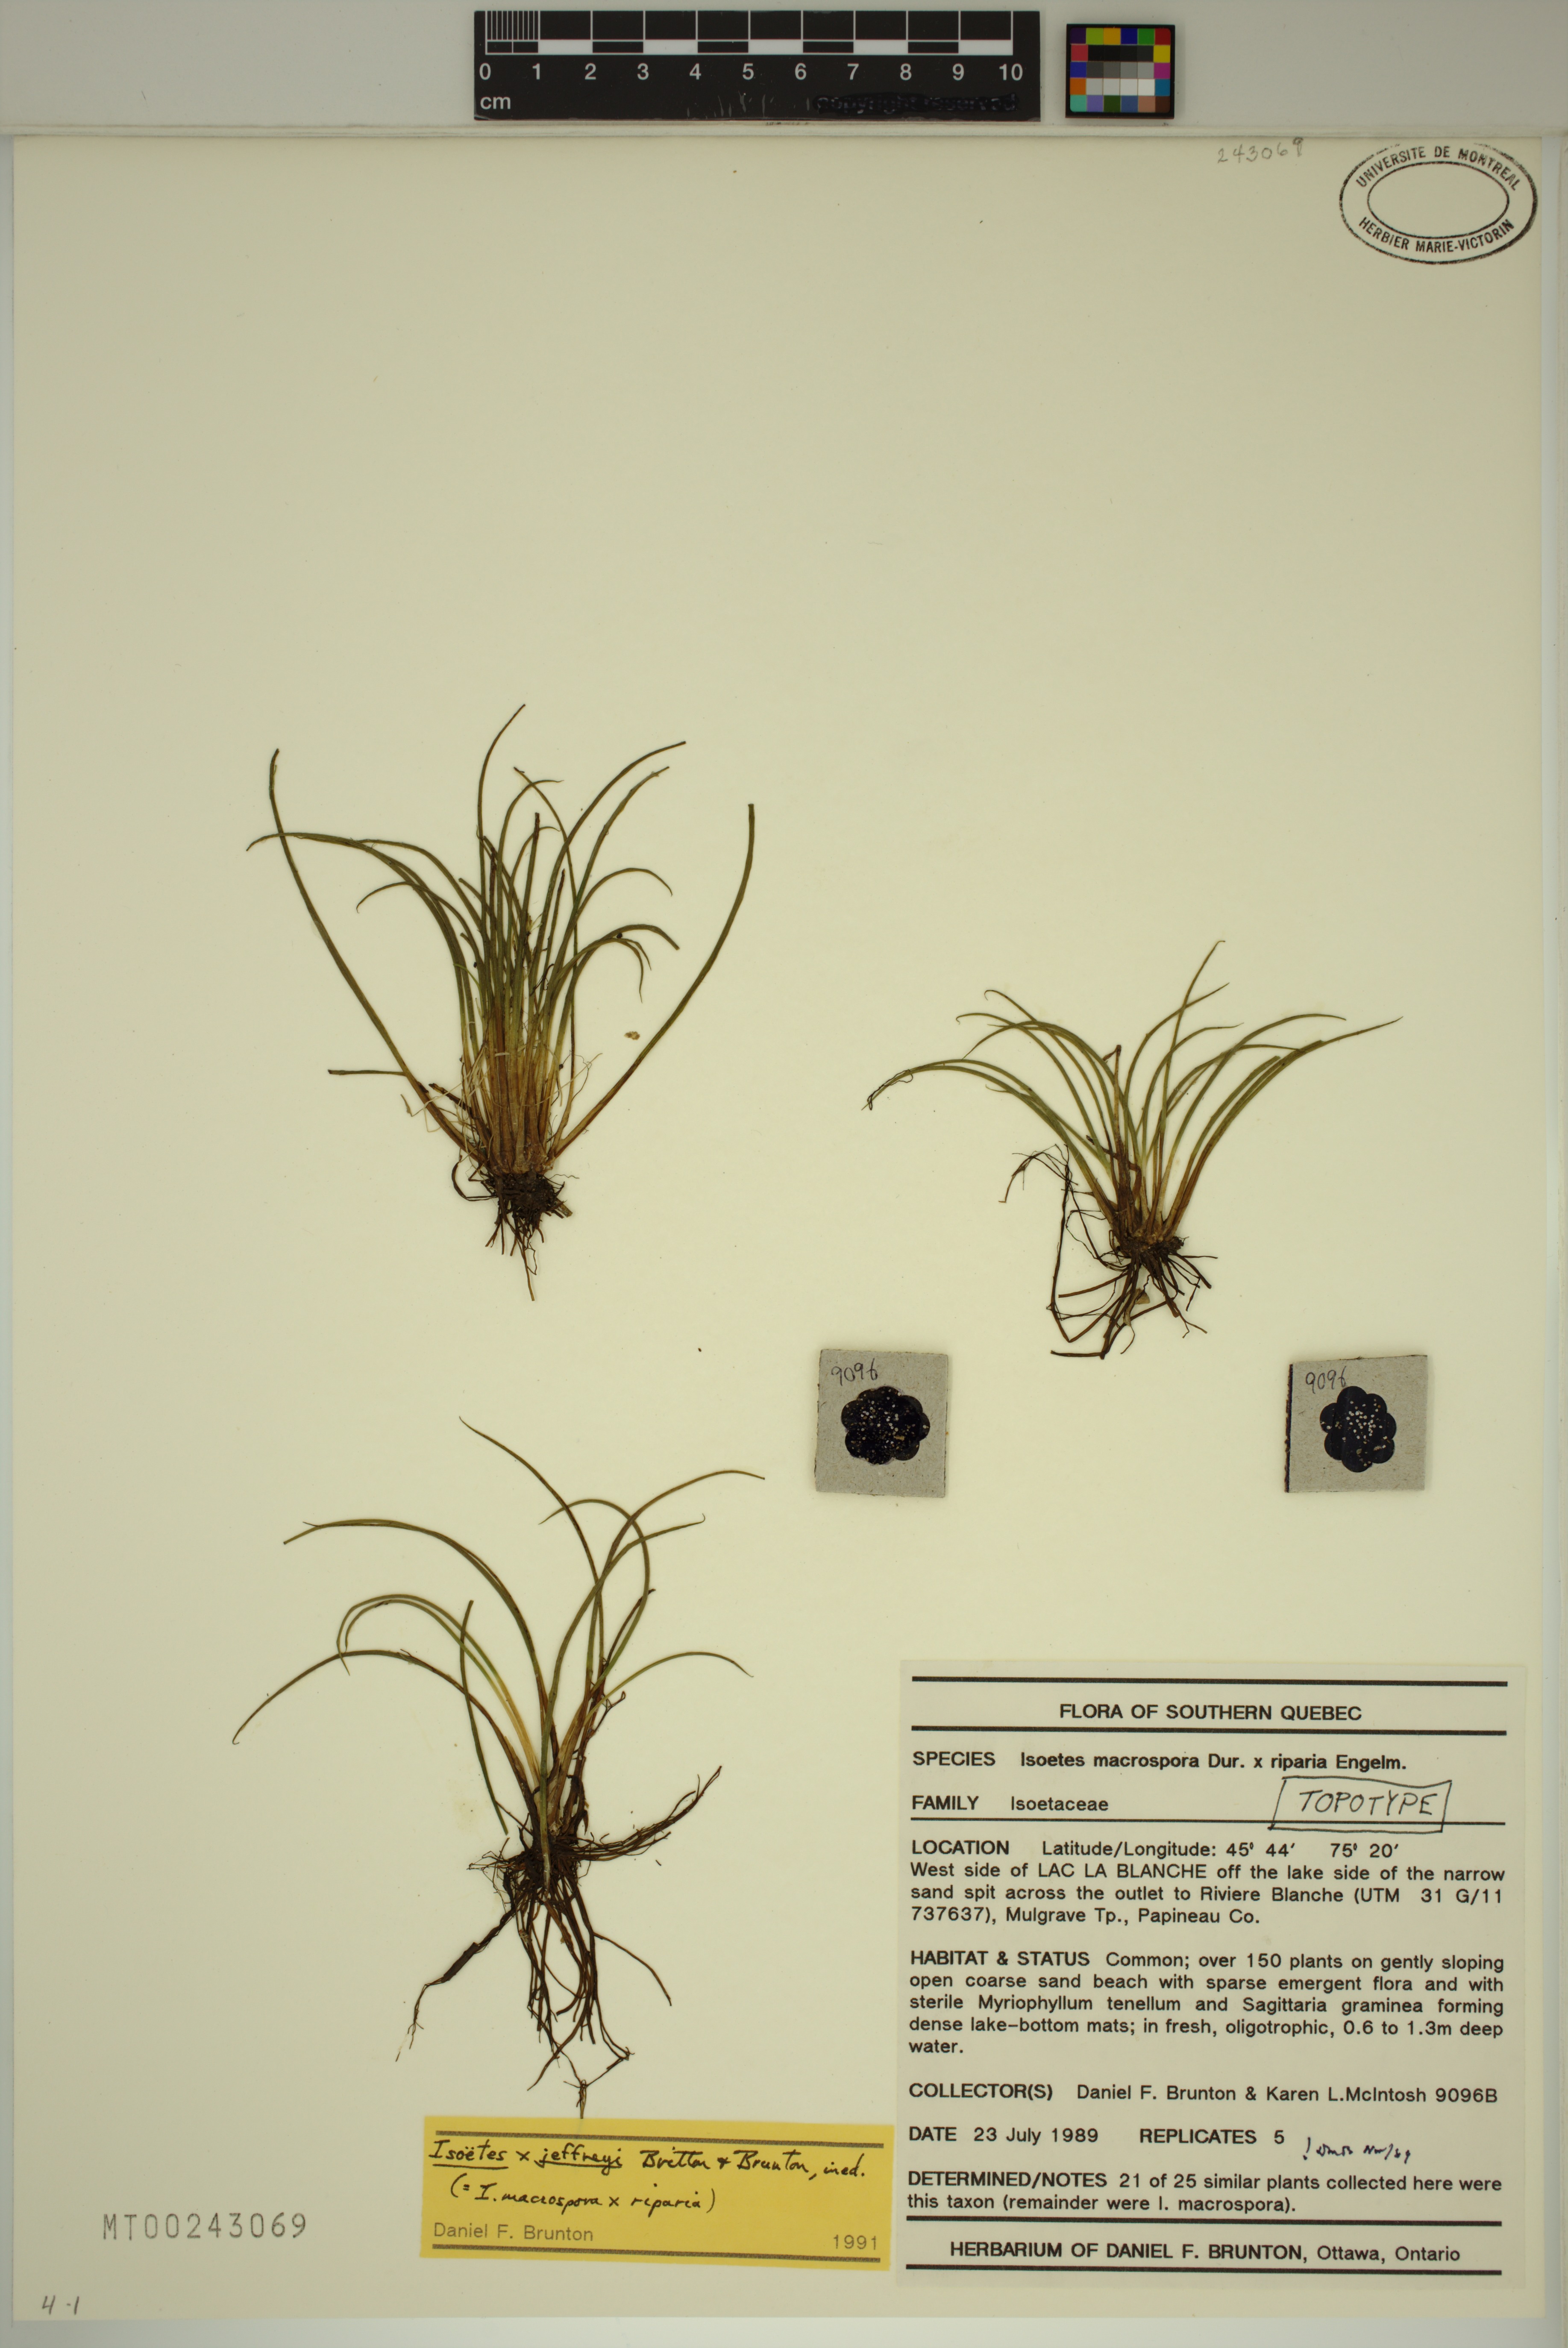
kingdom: Plantae
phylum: Tracheophyta
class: Lycopodiopsida
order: Isoetales
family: Isoetaceae
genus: Isoetes
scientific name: Isoetes jeffreyi
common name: Jeffrey's quillwort
